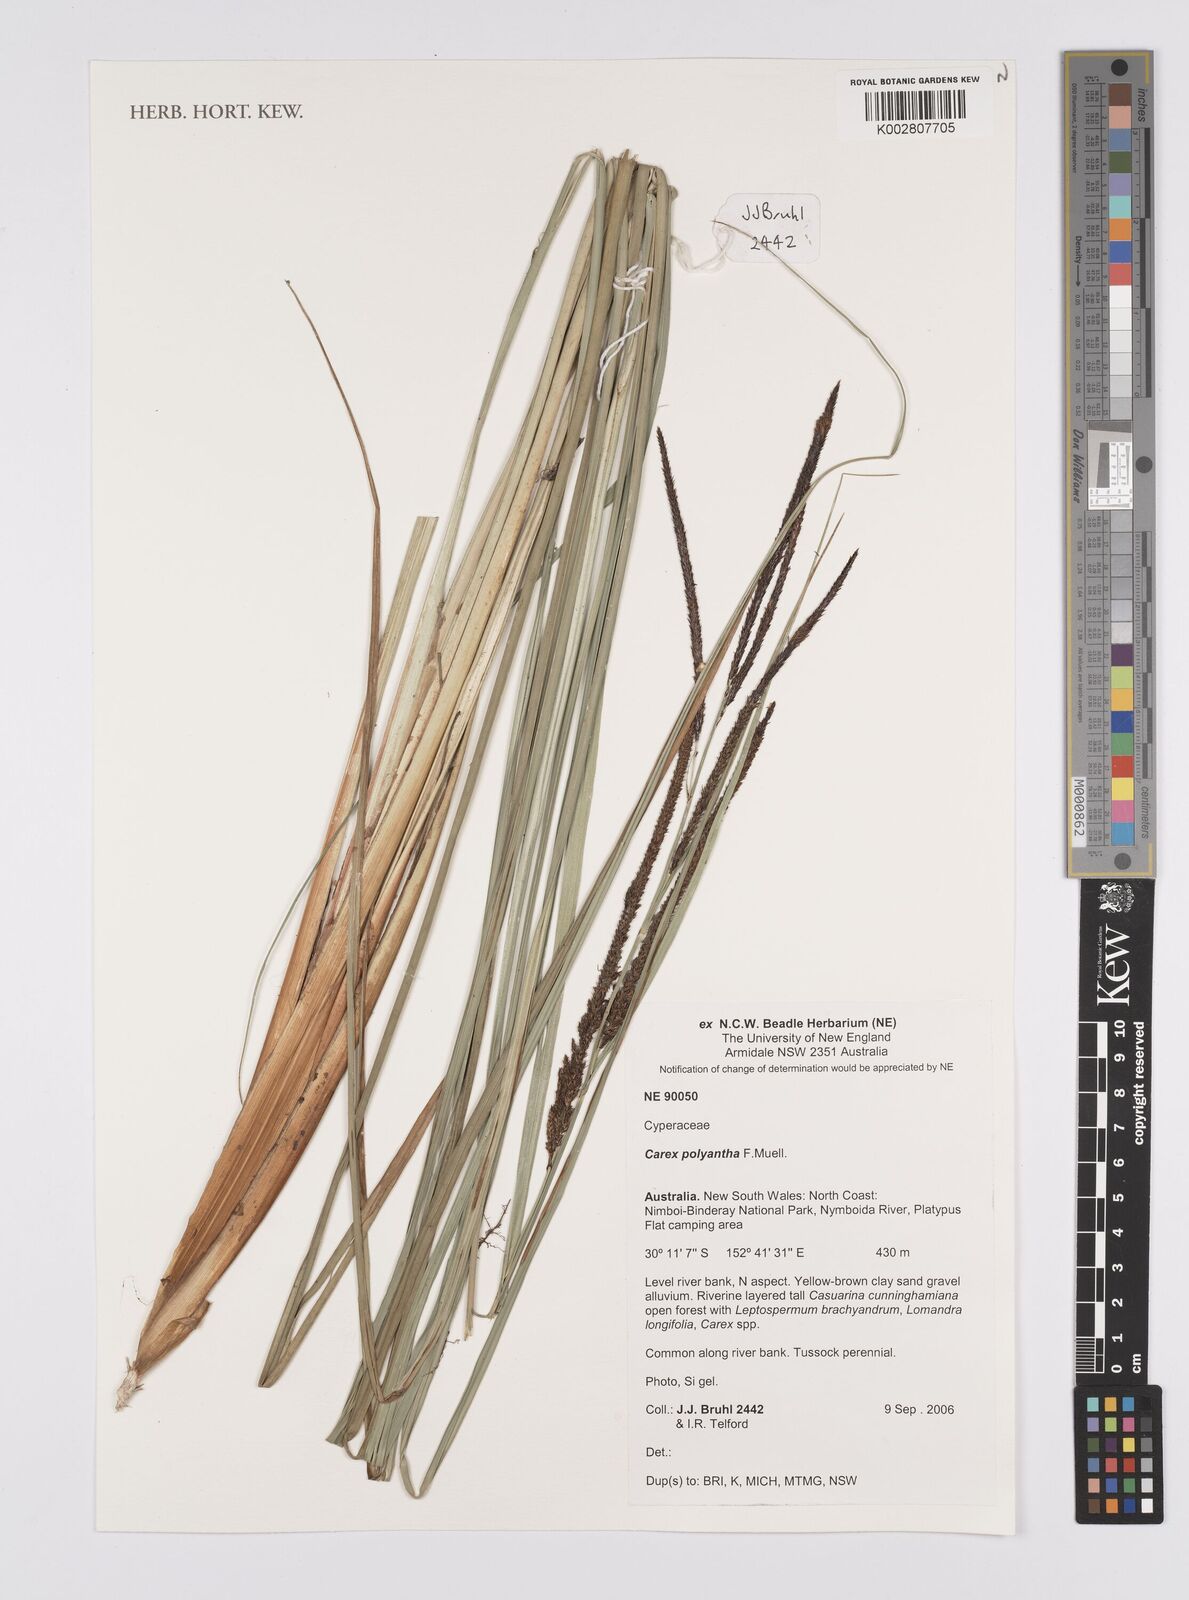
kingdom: Plantae
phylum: Tracheophyta
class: Liliopsida
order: Poales
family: Cyperaceae
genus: Carex
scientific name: Carex polyantha
